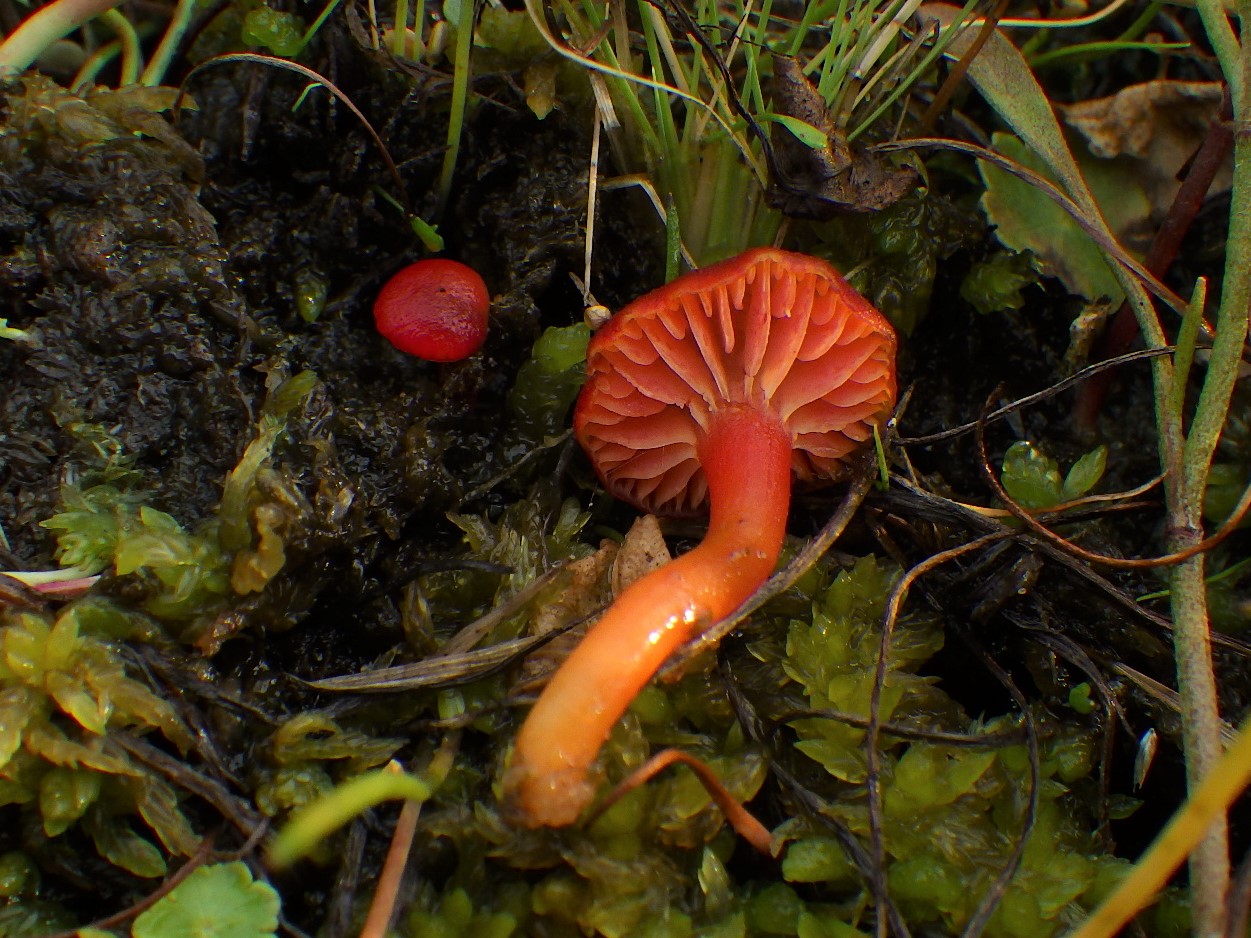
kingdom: Fungi
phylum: Basidiomycota
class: Agaricomycetes
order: Agaricales
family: Hygrophoraceae
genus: Hygrocybe
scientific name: Hygrocybe phaeococcinea
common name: sortdugget vokshat
